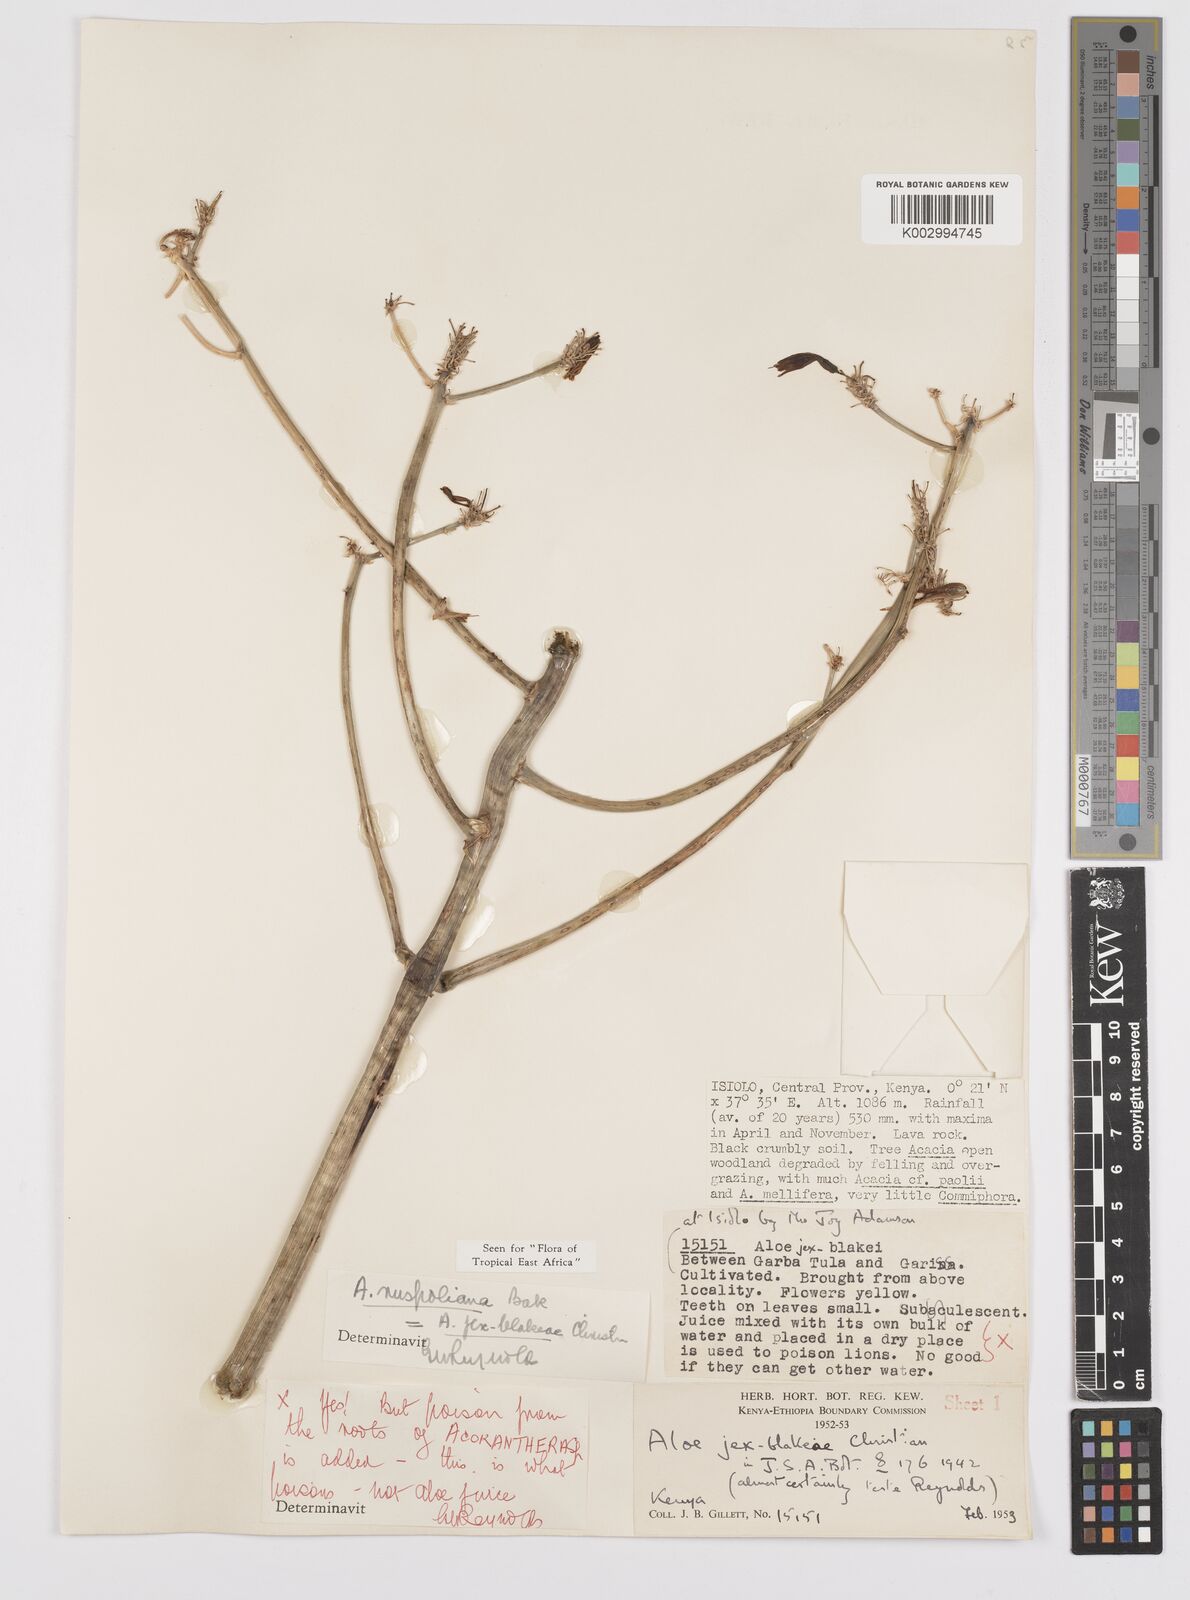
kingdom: Plantae
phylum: Tracheophyta
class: Liliopsida
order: Asparagales
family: Asphodelaceae
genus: Aloe
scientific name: Aloe ruspoliana
